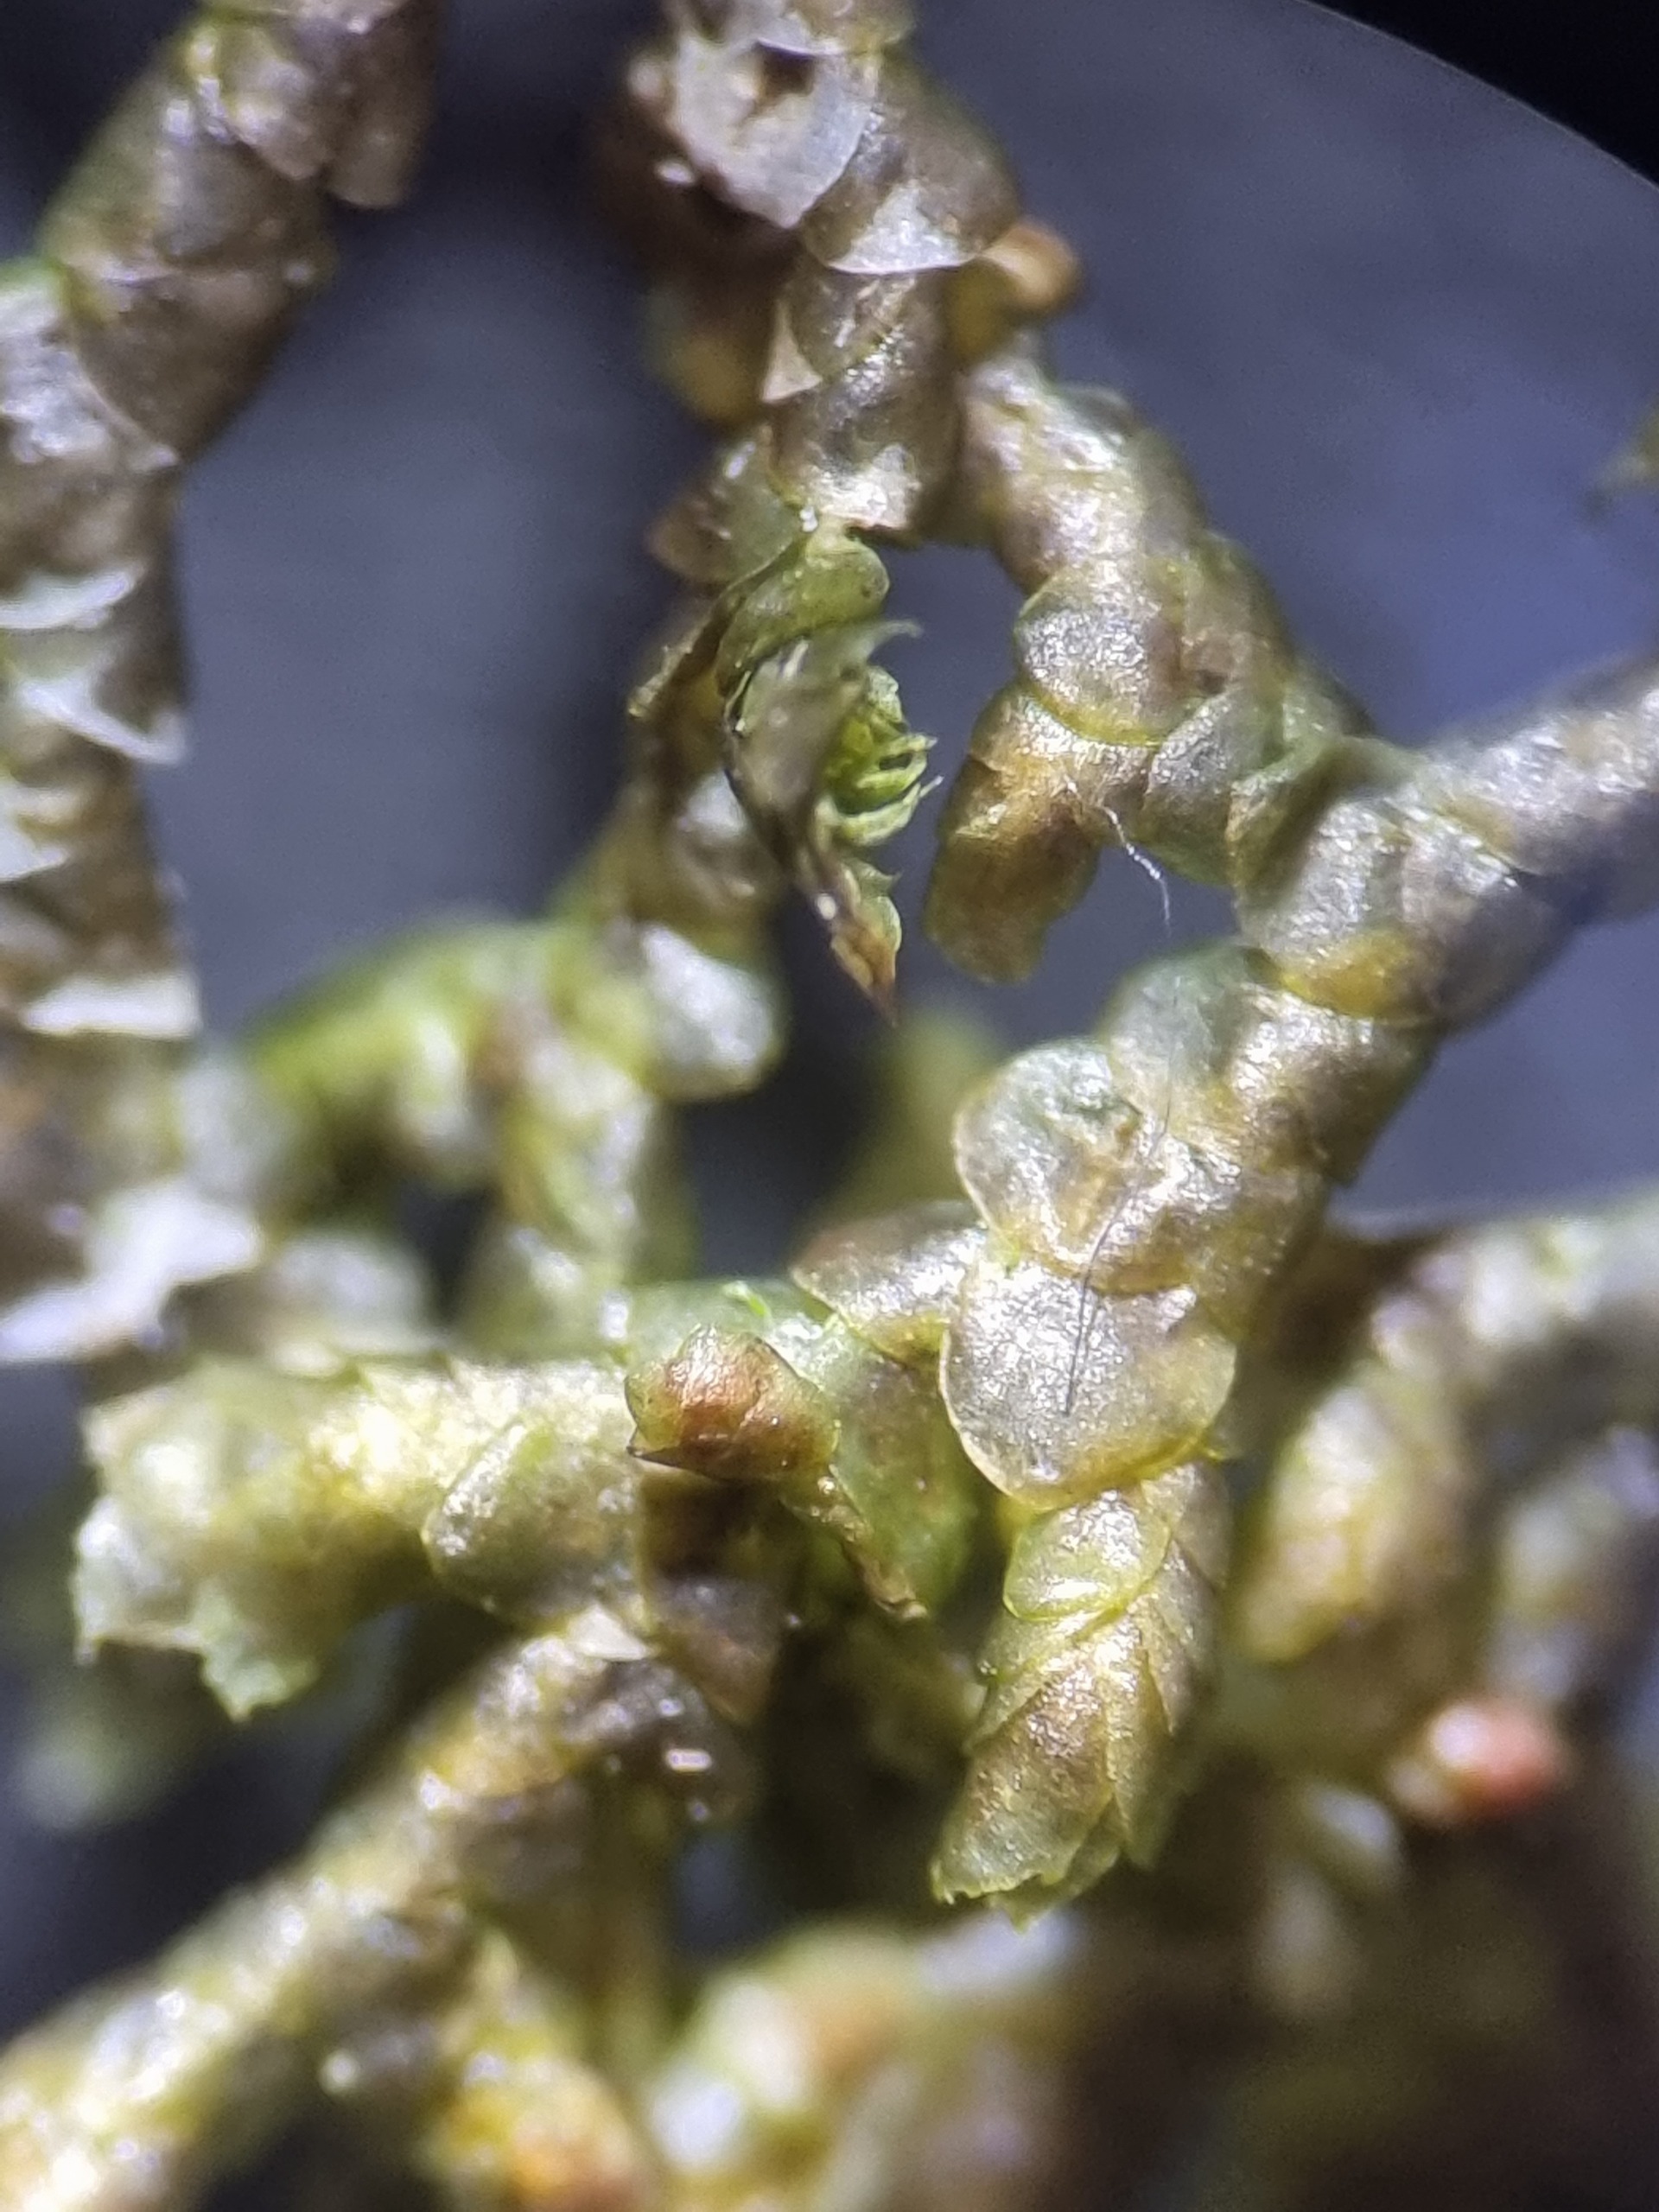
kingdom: Plantae
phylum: Marchantiophyta
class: Jungermanniopsida
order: Porellales
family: Porellaceae
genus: Porella
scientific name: Porella platyphylla
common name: Almindelig skælryg
